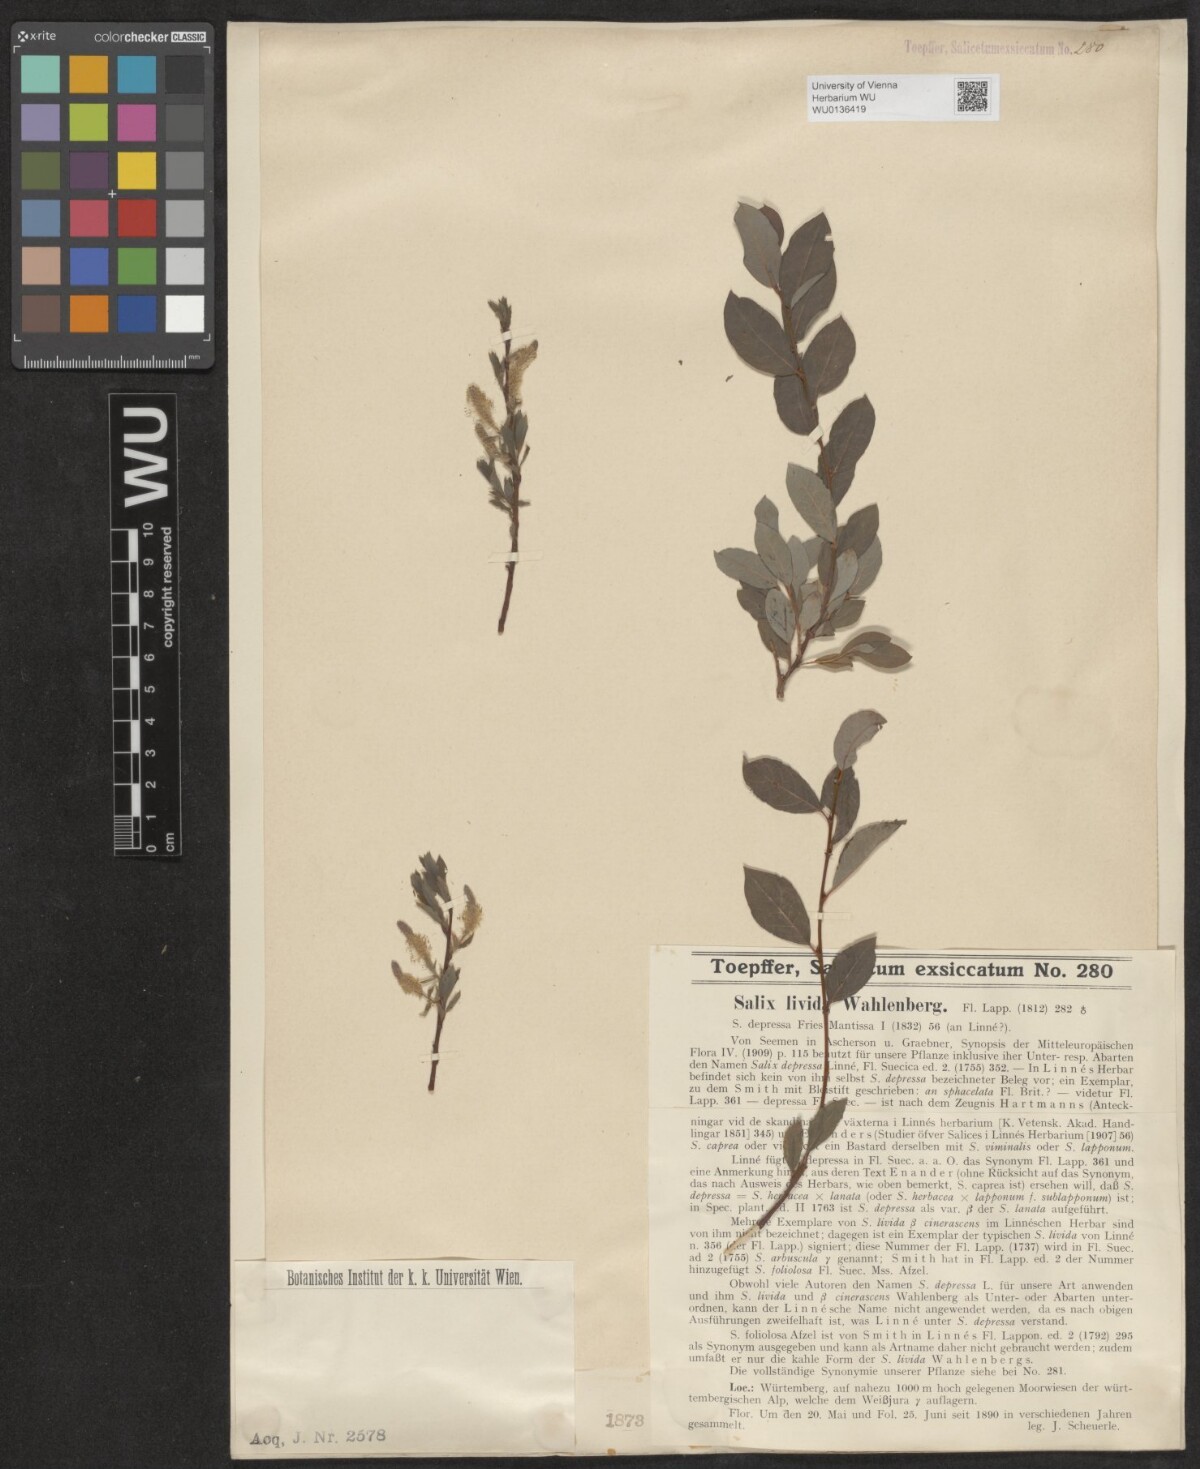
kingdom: Plantae
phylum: Tracheophyta
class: Magnoliopsida
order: Malpighiales
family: Salicaceae
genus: Salix
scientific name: Salix lanata
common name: Woolly willow
